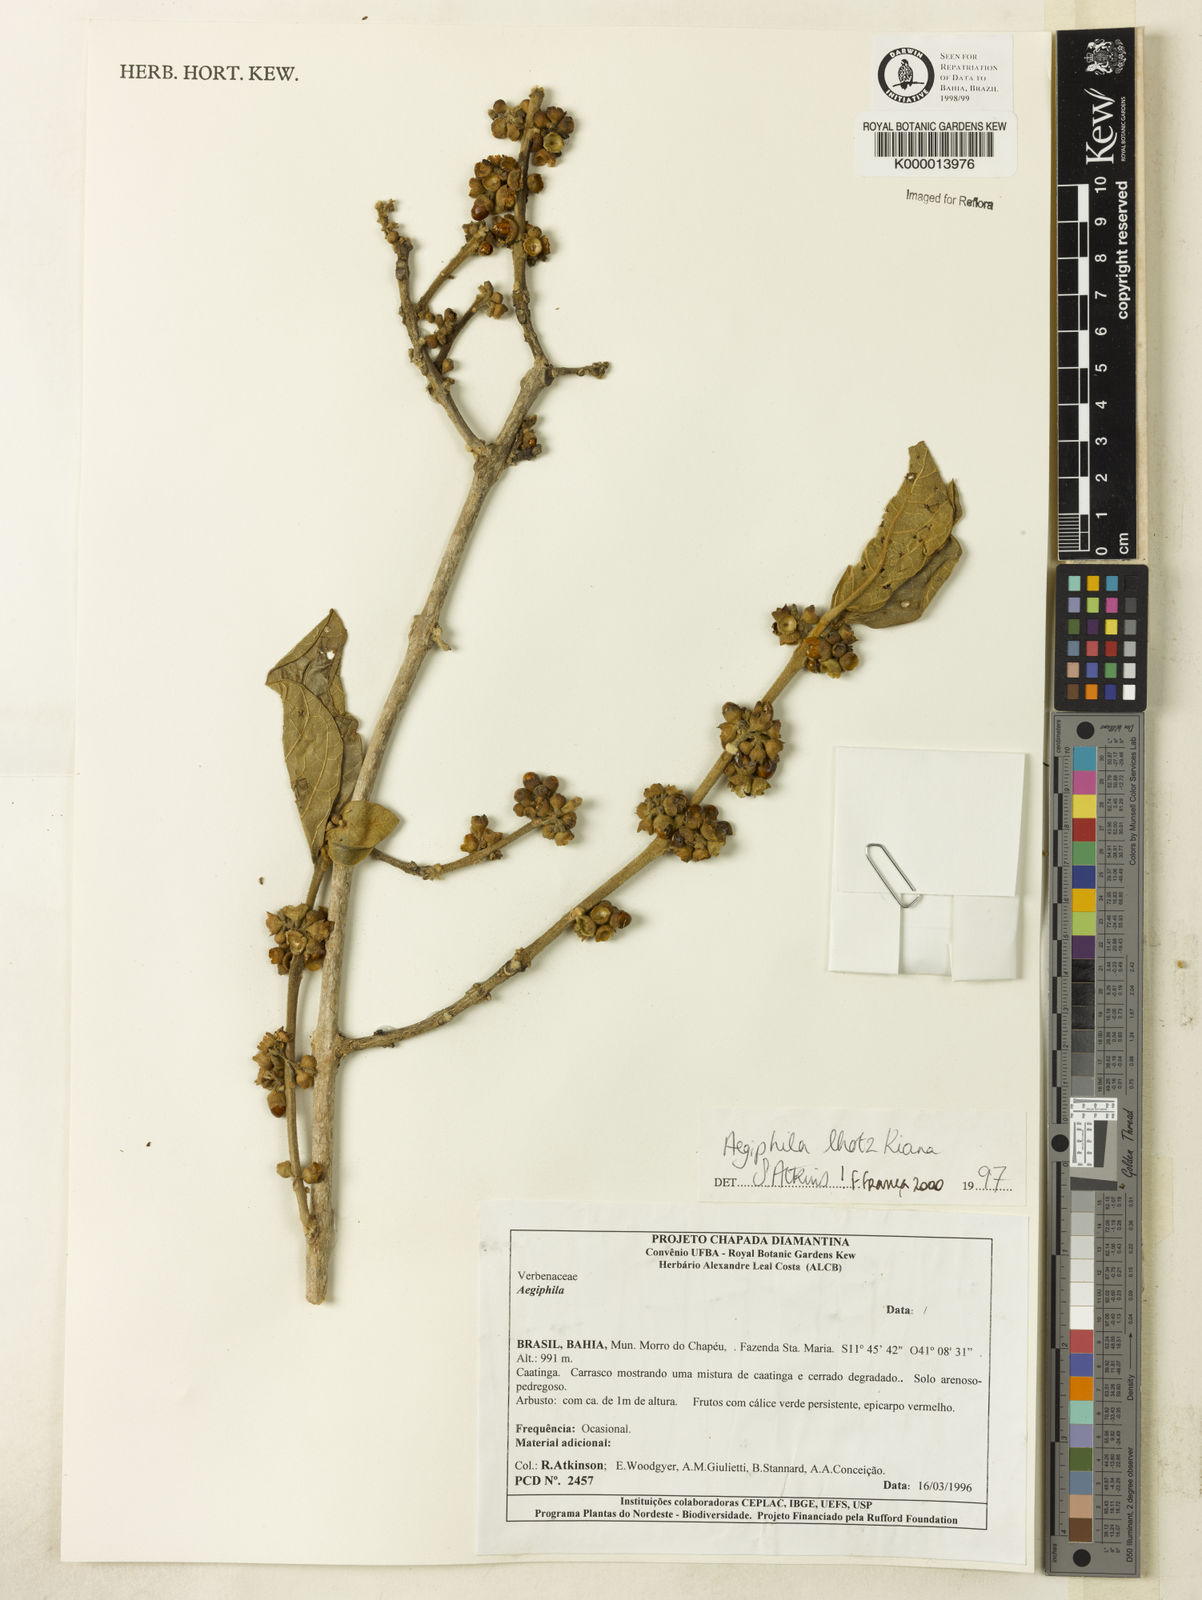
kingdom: Plantae
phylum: Tracheophyta
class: Magnoliopsida
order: Lamiales
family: Lamiaceae
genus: Aegiphila
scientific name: Aegiphila verticillata
